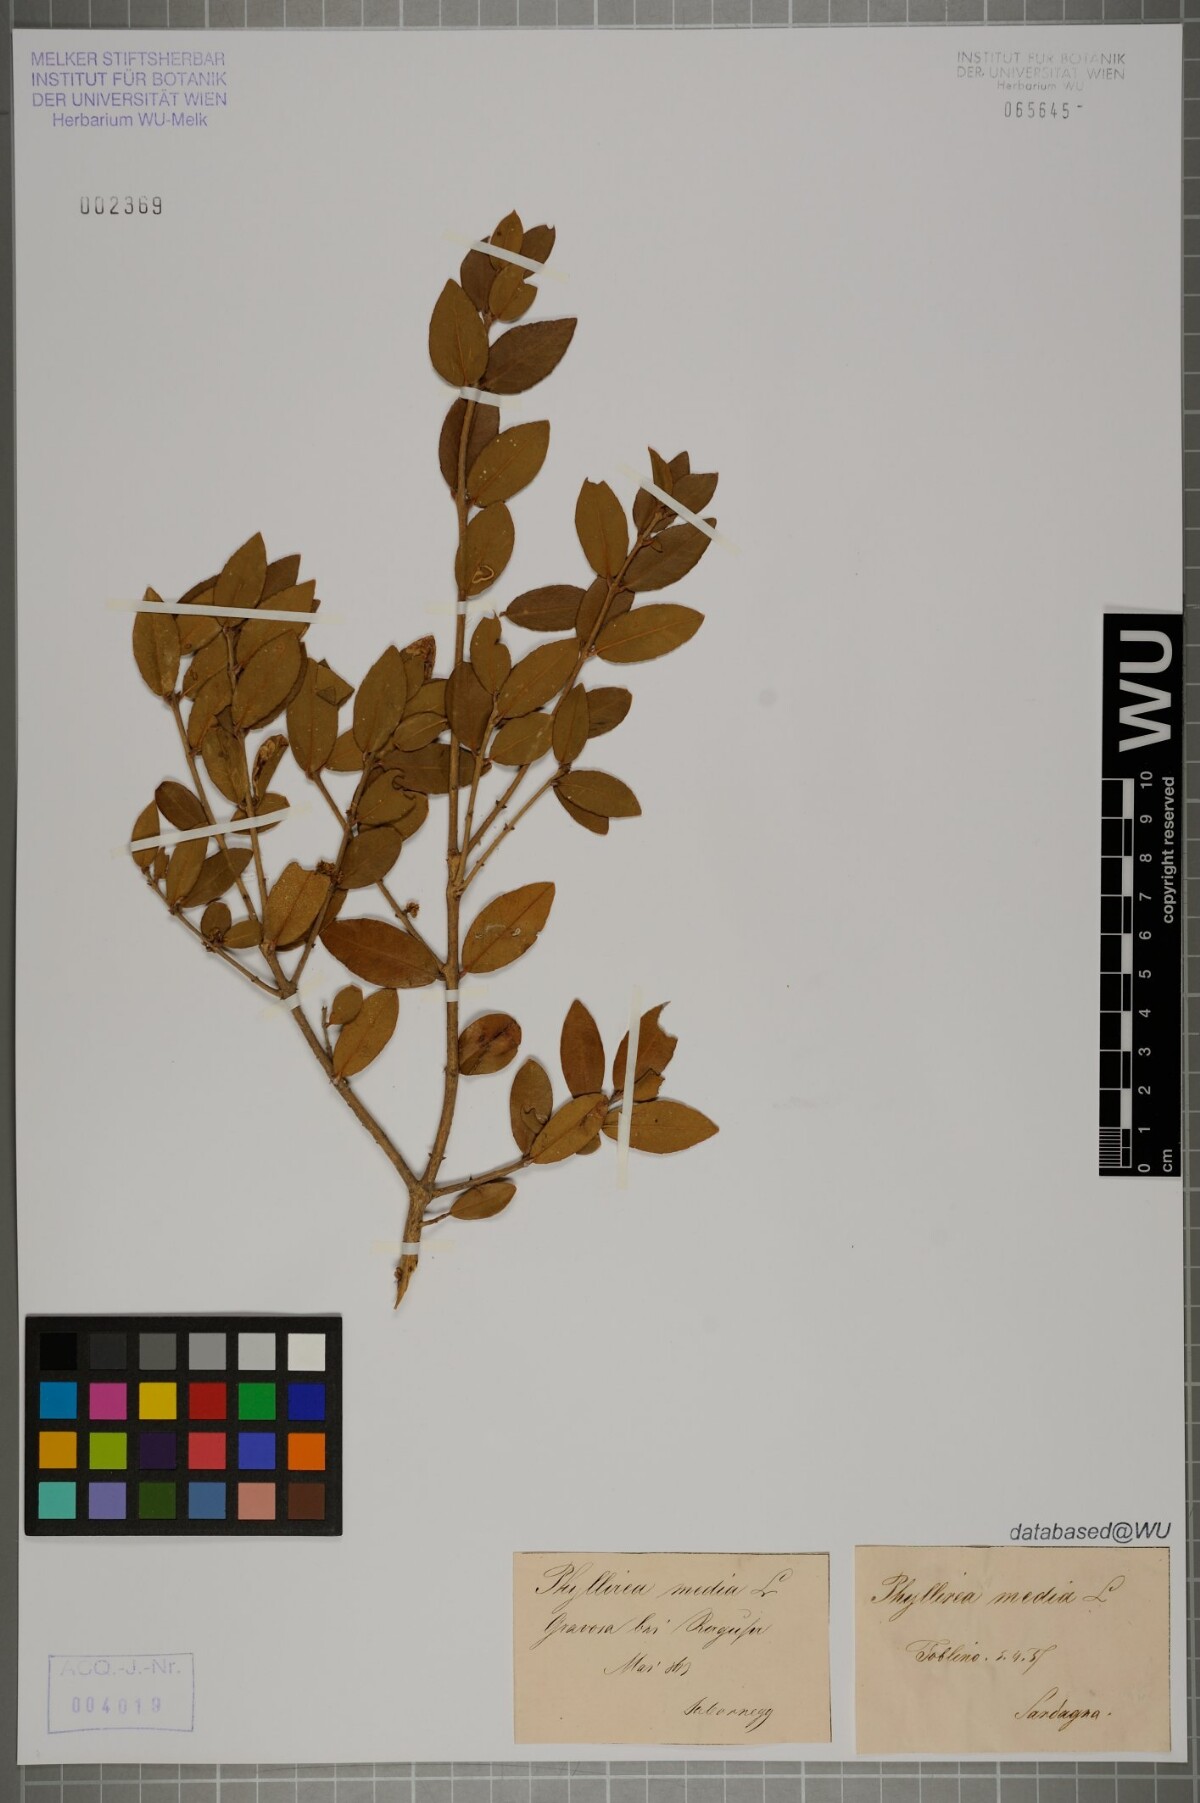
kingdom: Plantae
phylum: Tracheophyta
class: Magnoliopsida
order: Lamiales
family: Oleaceae
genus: Phillyrea
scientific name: Phillyrea latifolia
